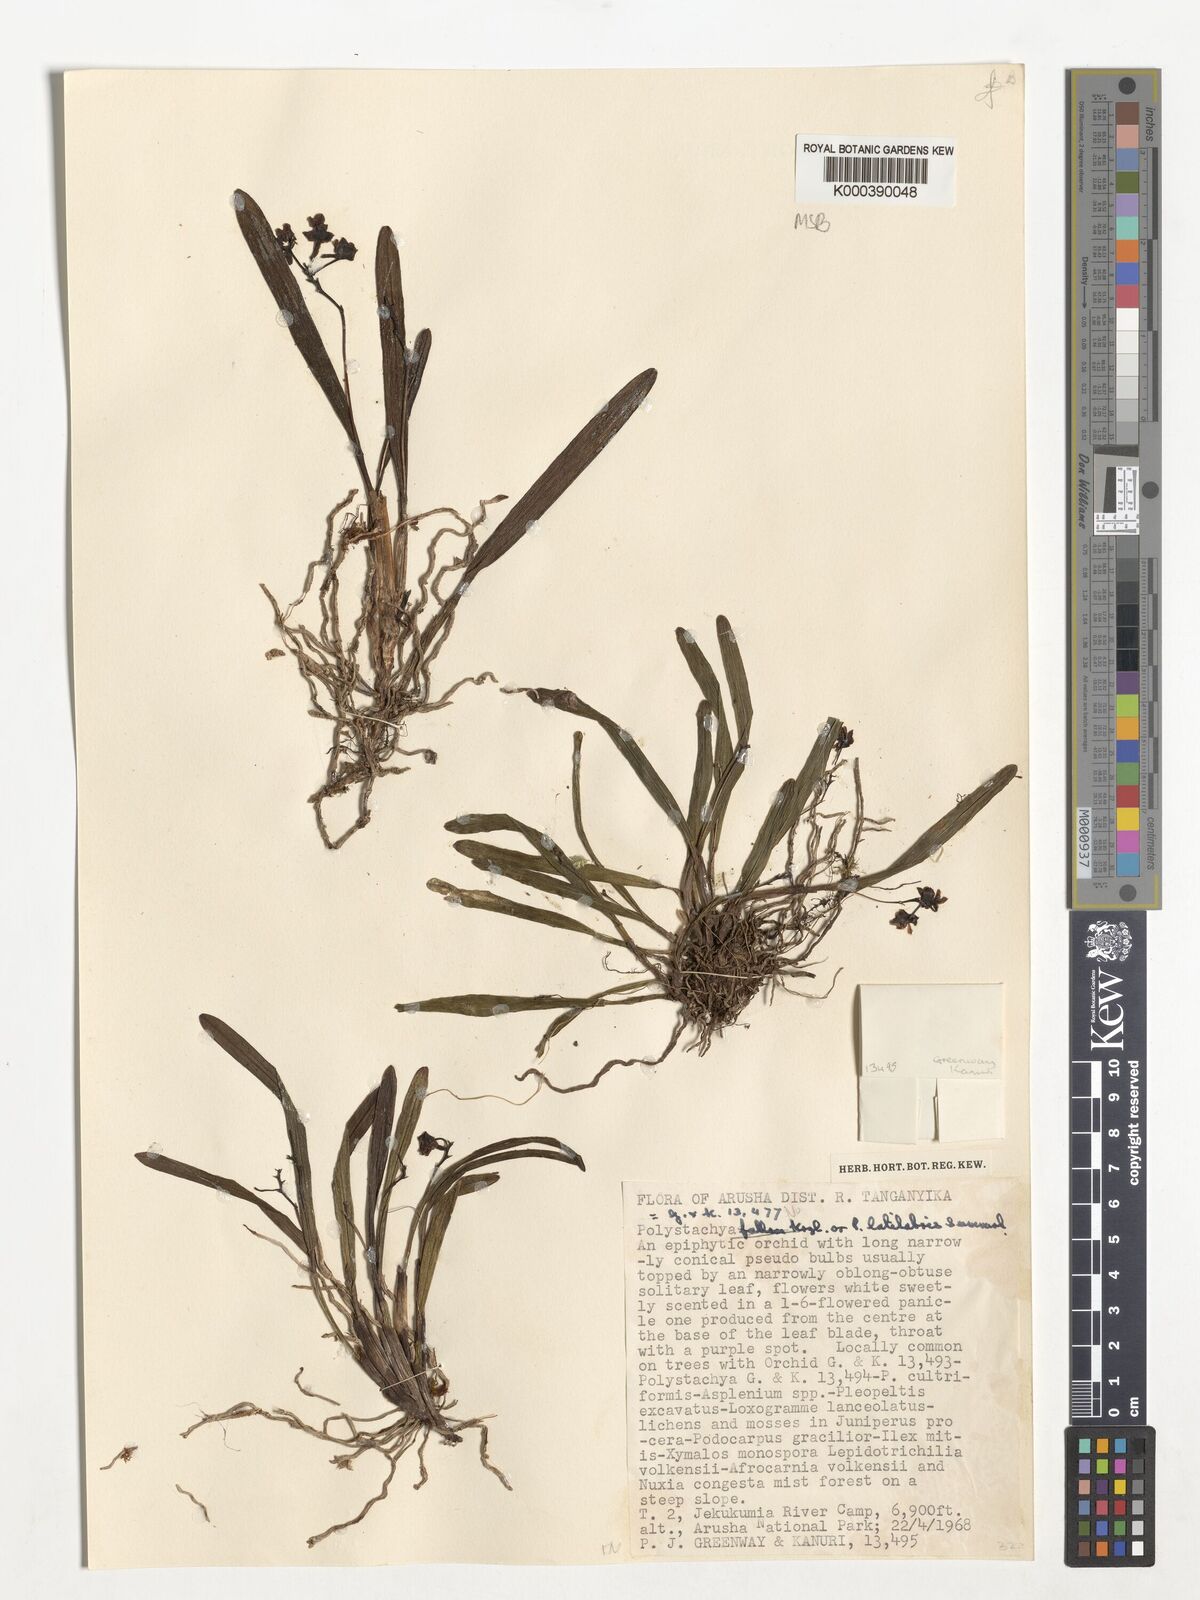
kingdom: Plantae
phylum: Tracheophyta
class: Liliopsida
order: Asparagales
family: Orchidaceae
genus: Polystachya
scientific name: Polystachya caespitifica
